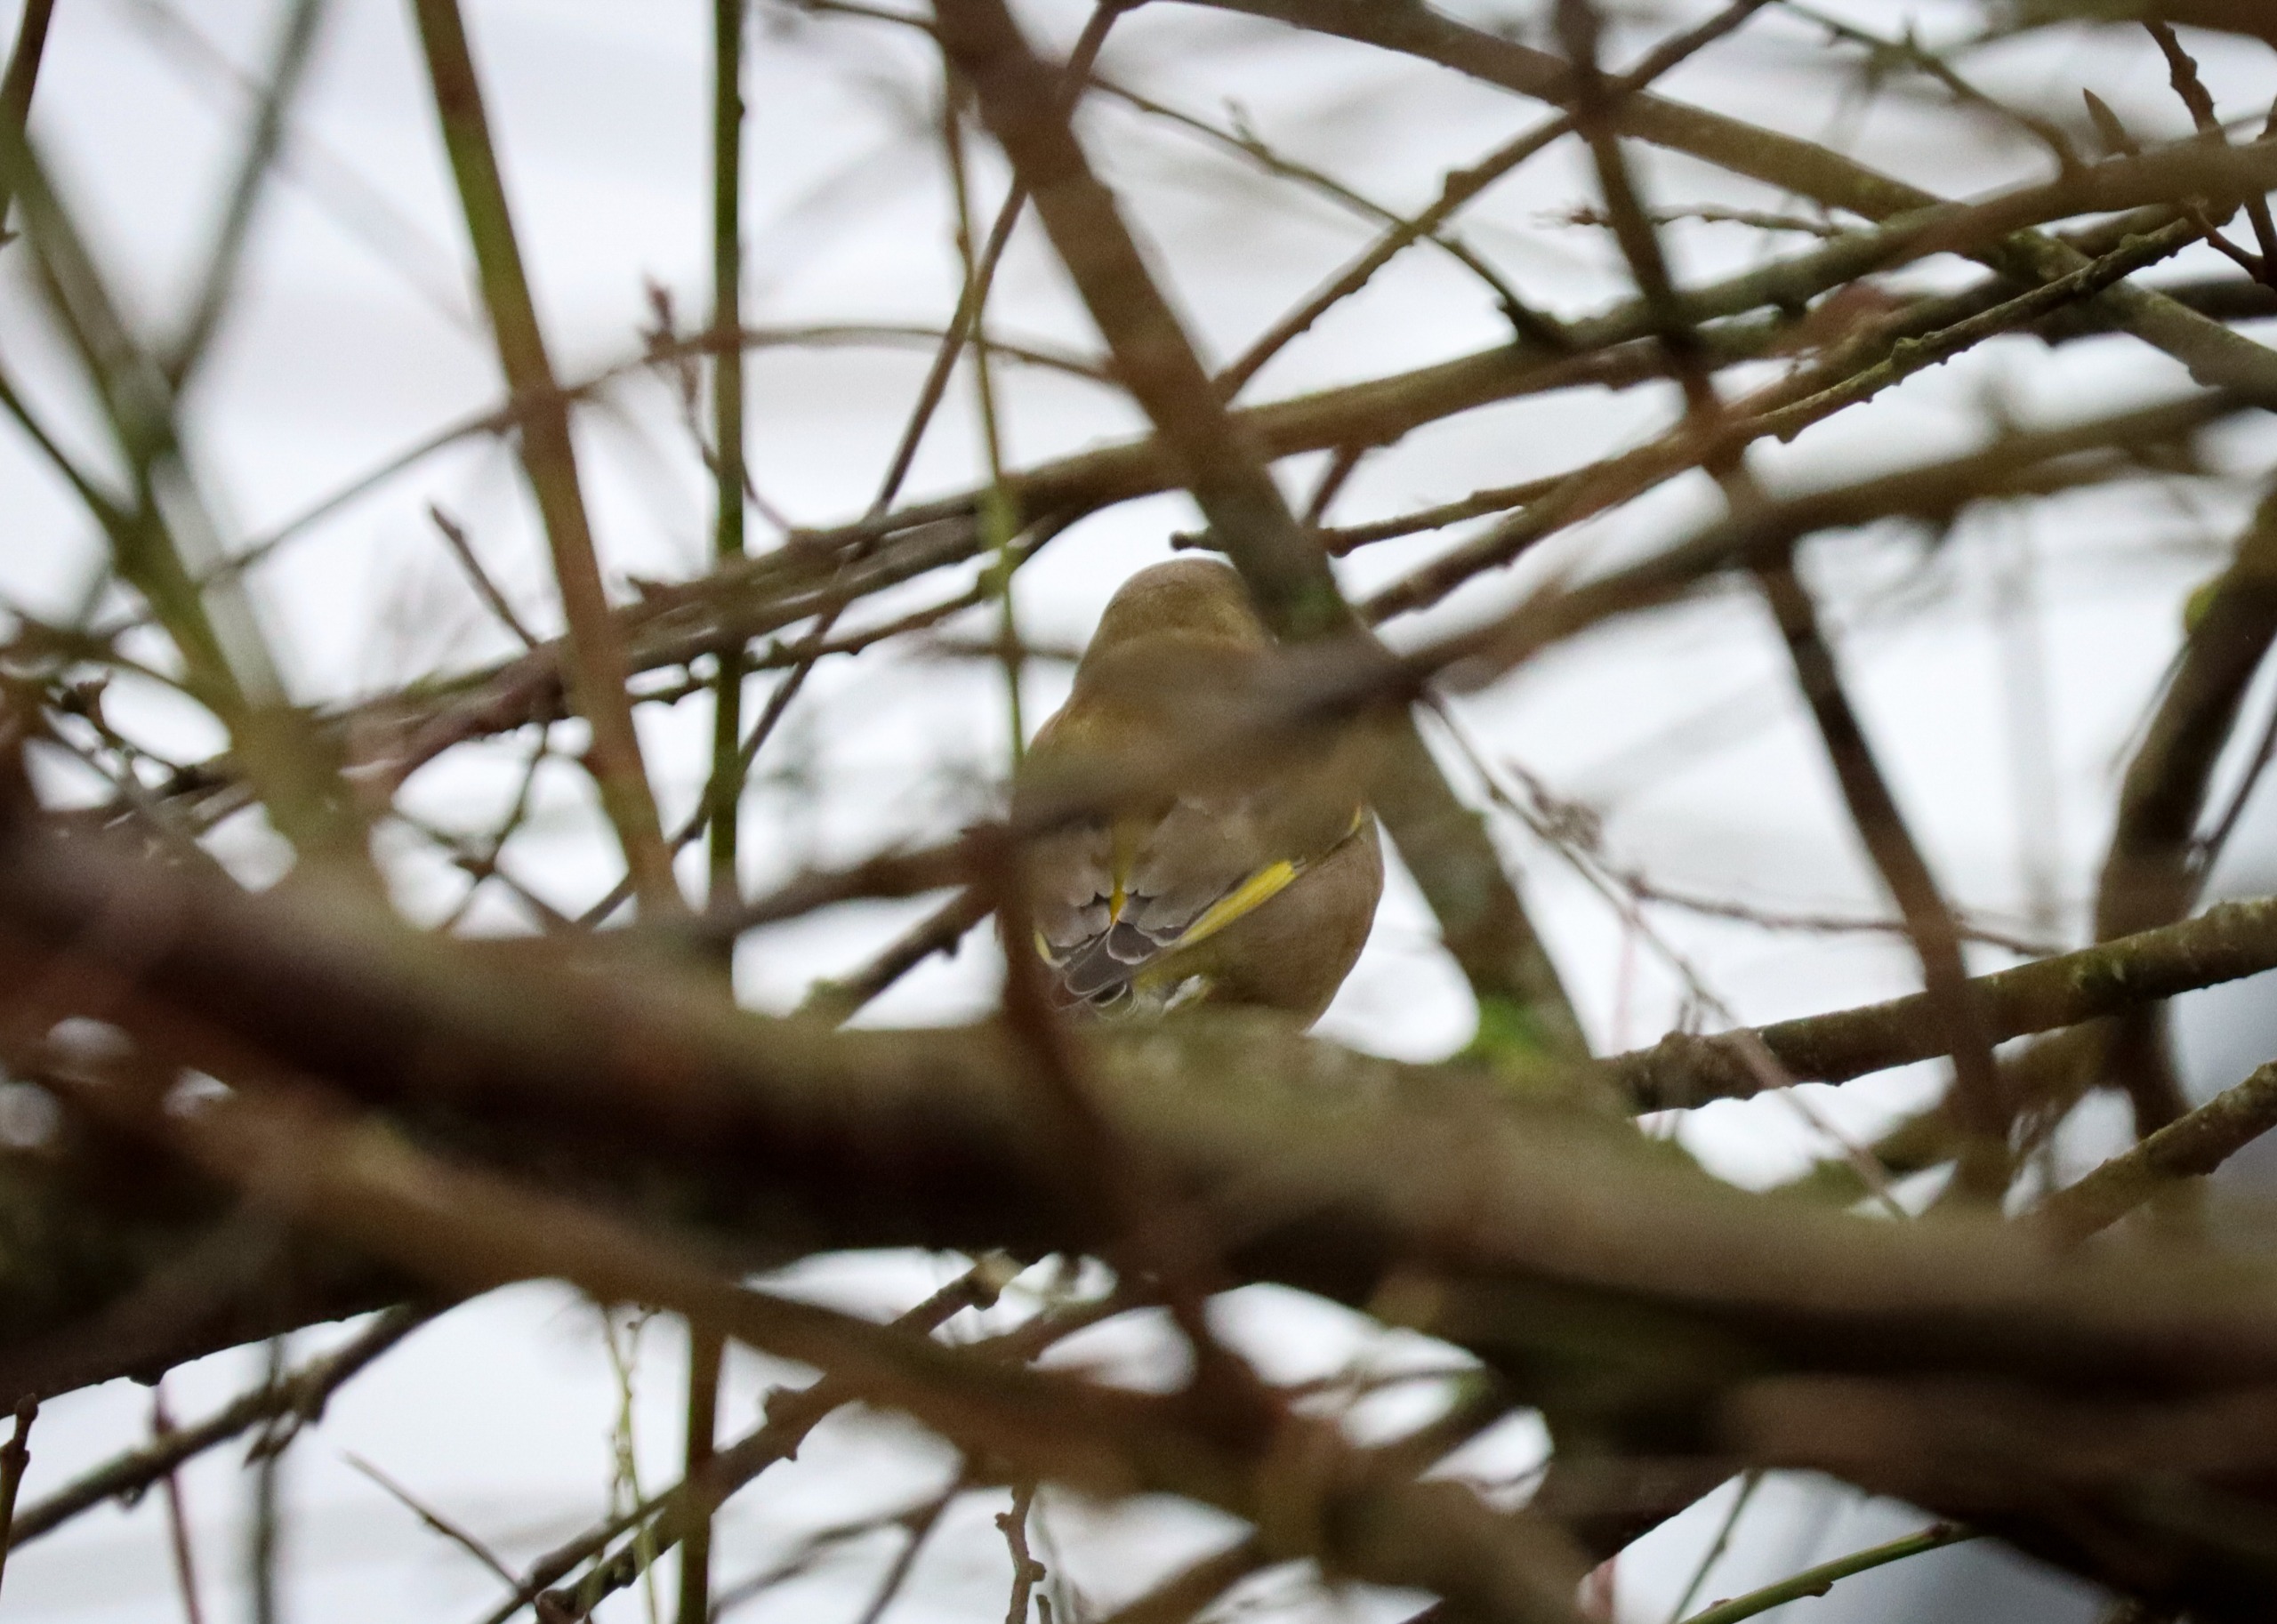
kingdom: Plantae
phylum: Tracheophyta
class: Liliopsida
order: Poales
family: Poaceae
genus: Chloris
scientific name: Chloris chloris
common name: Grønirisk
